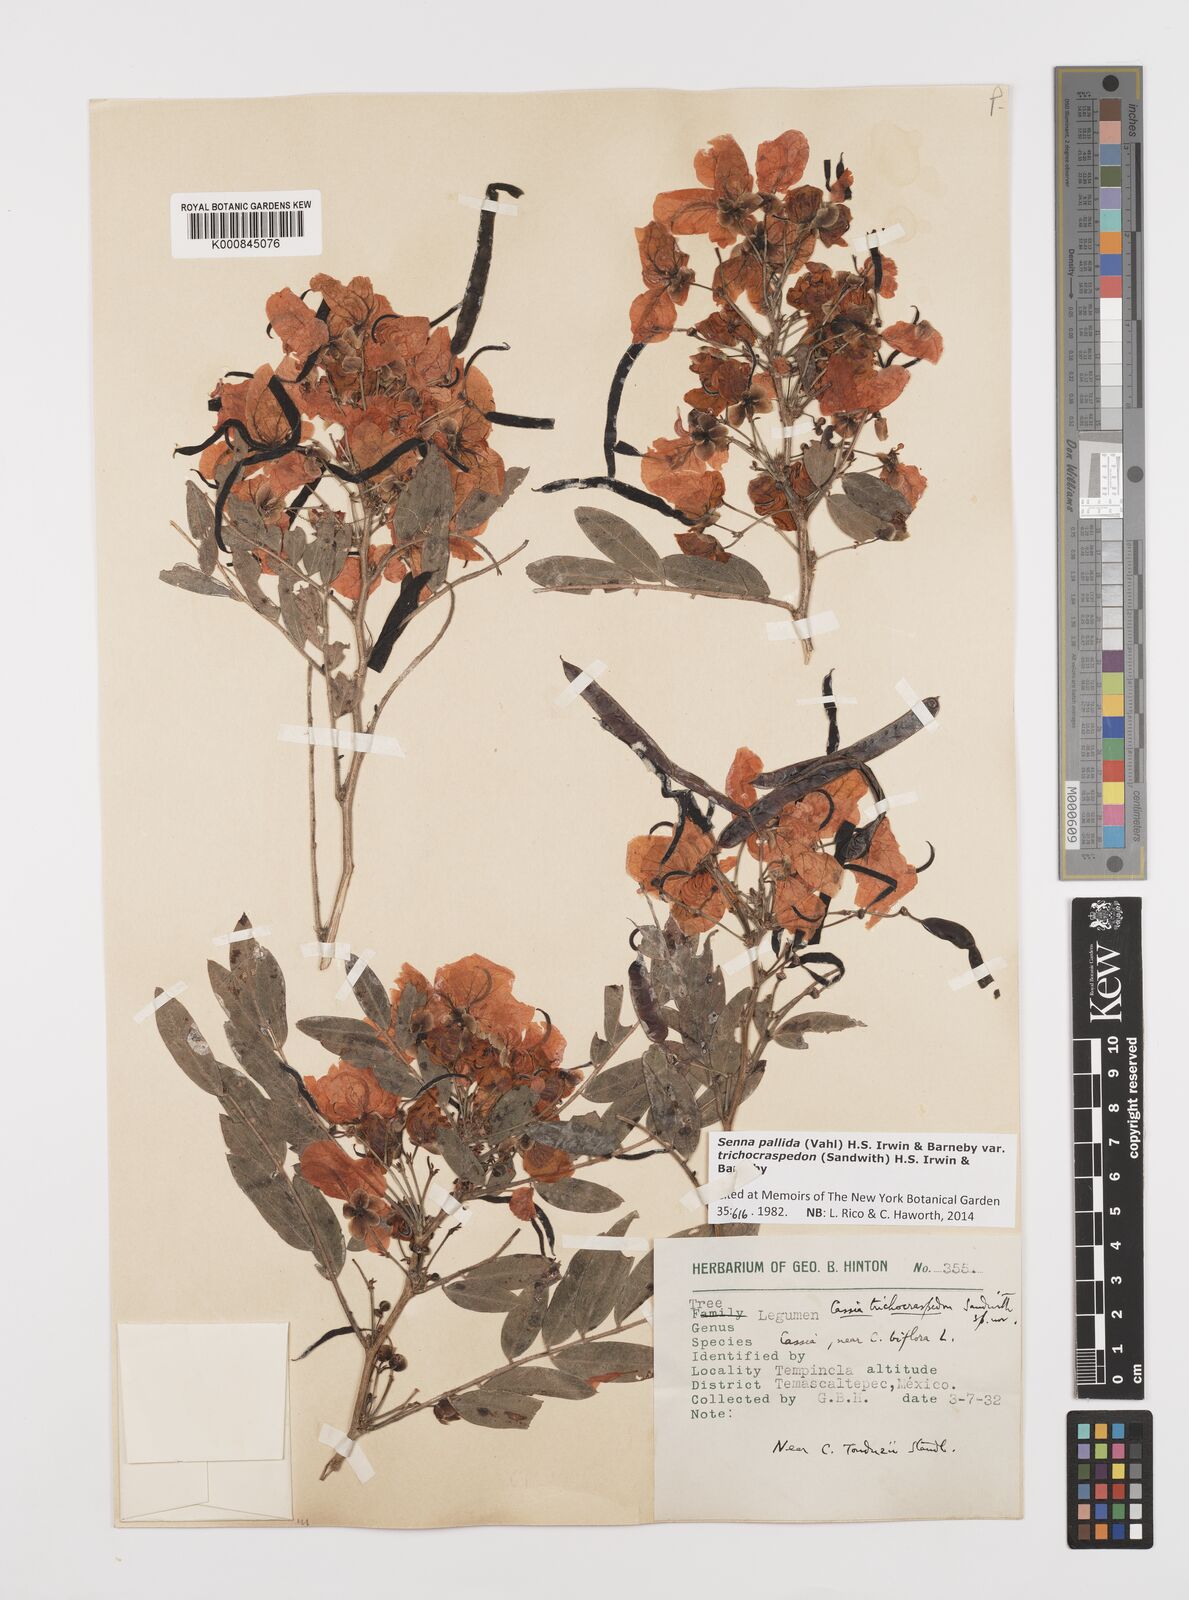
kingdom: Plantae
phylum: Tracheophyta
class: Magnoliopsida
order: Fabales
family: Fabaceae
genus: Senna
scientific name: Senna pallida
